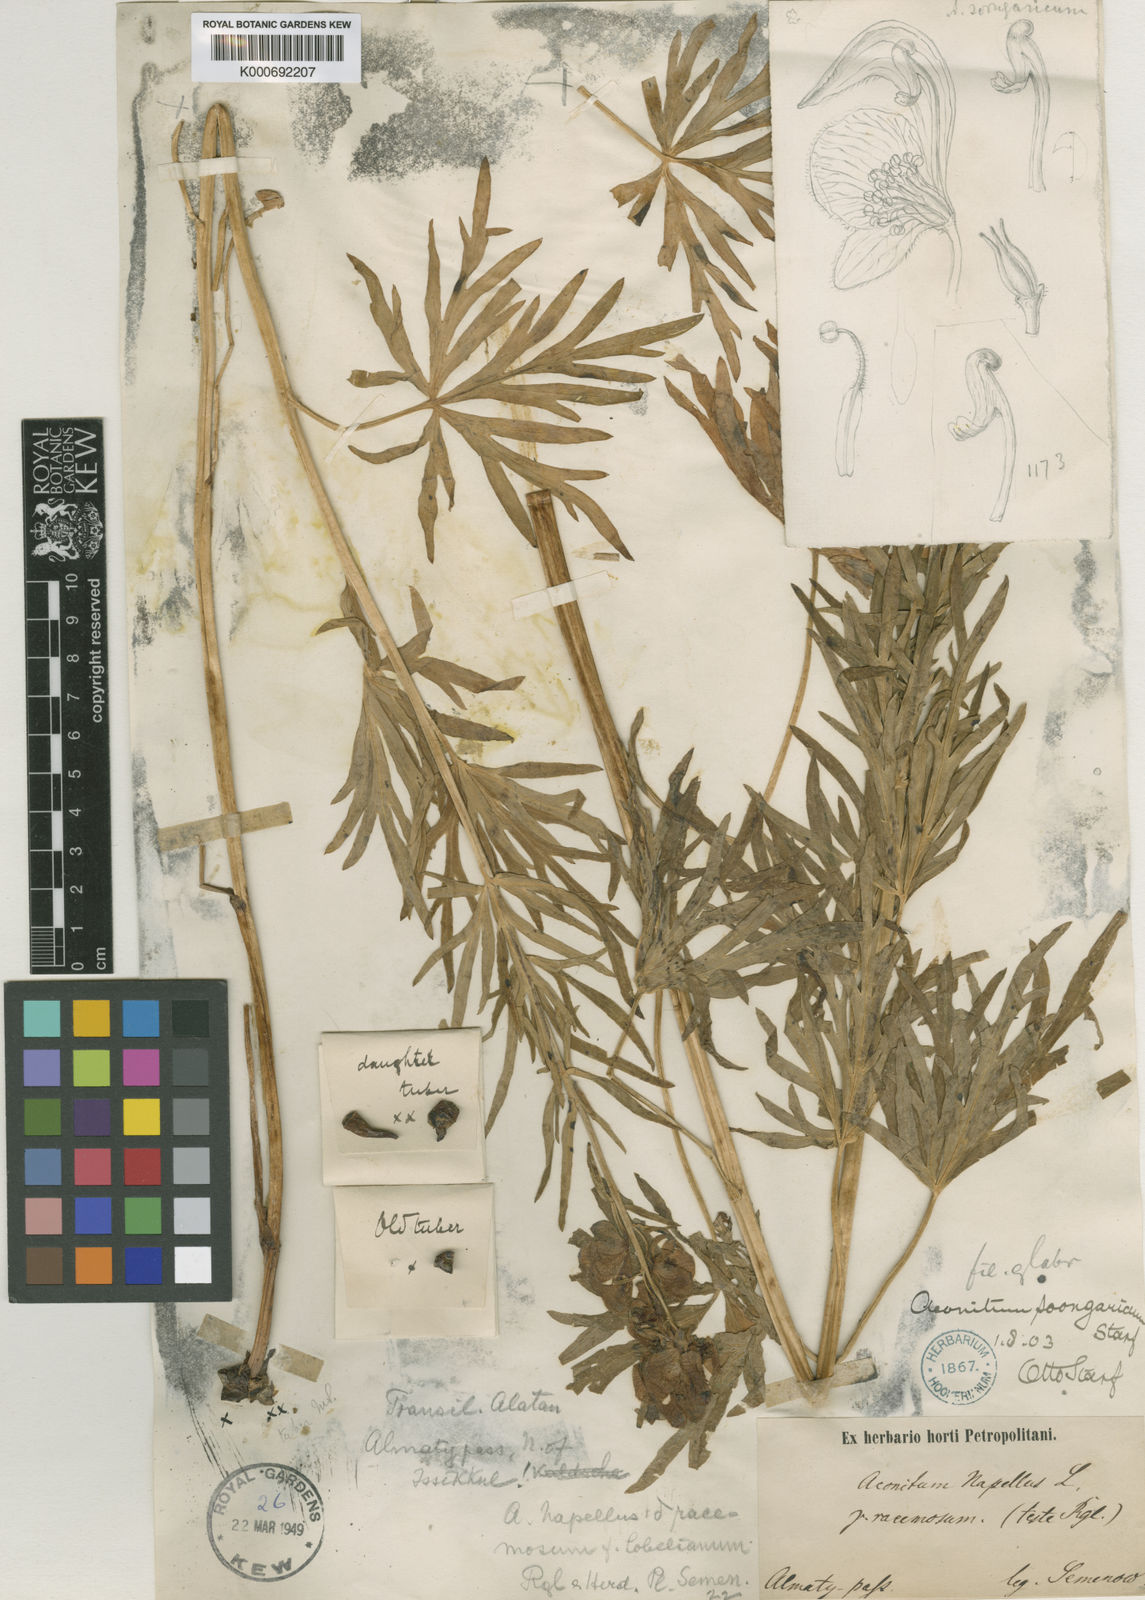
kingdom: Plantae
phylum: Tracheophyta
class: Magnoliopsida
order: Ranunculales
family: Ranunculaceae
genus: Aconitum
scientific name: Aconitum soongaricum
